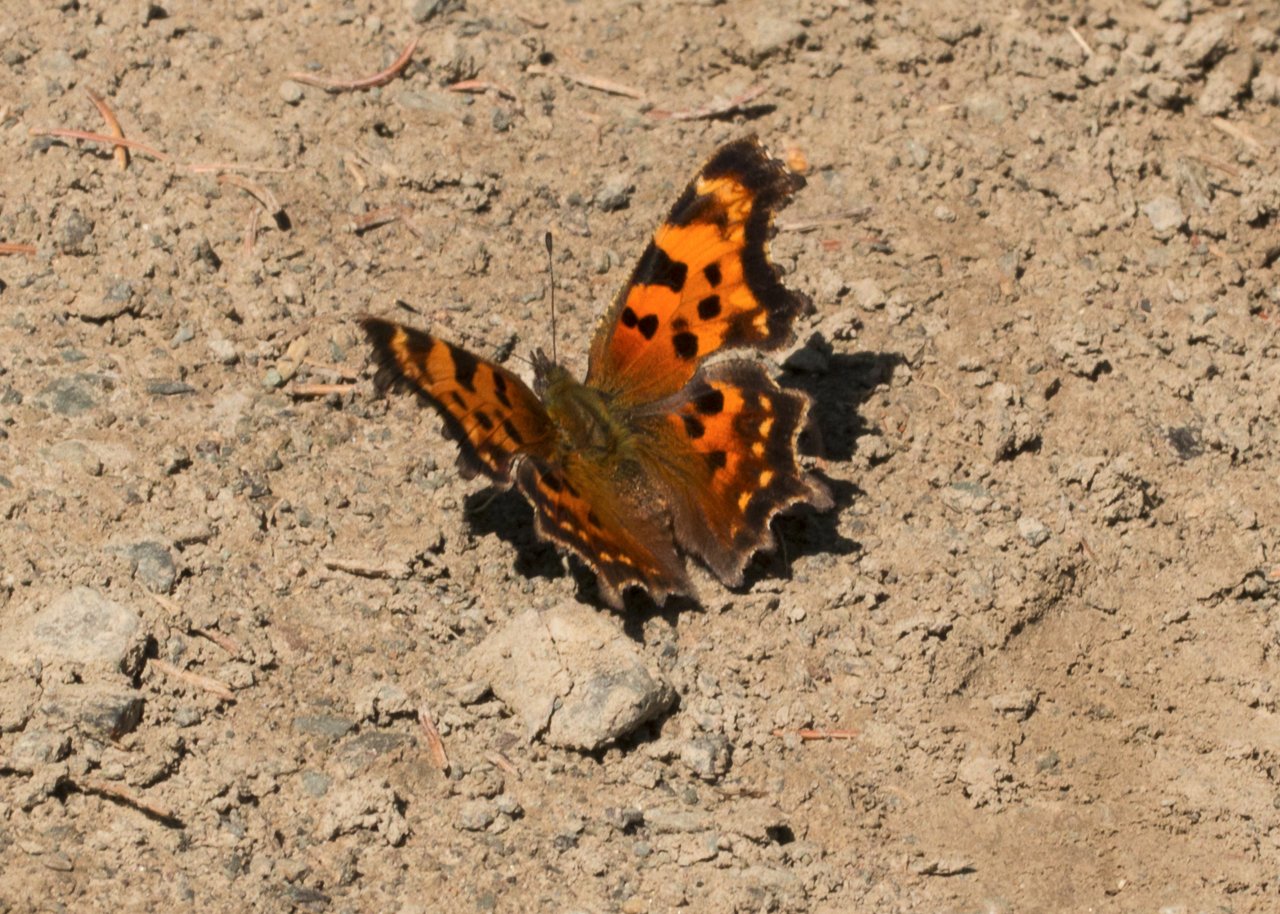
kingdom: Animalia
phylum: Arthropoda
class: Insecta
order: Lepidoptera
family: Nymphalidae
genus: Polygonia
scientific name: Polygonia faunus
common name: Green Comma
